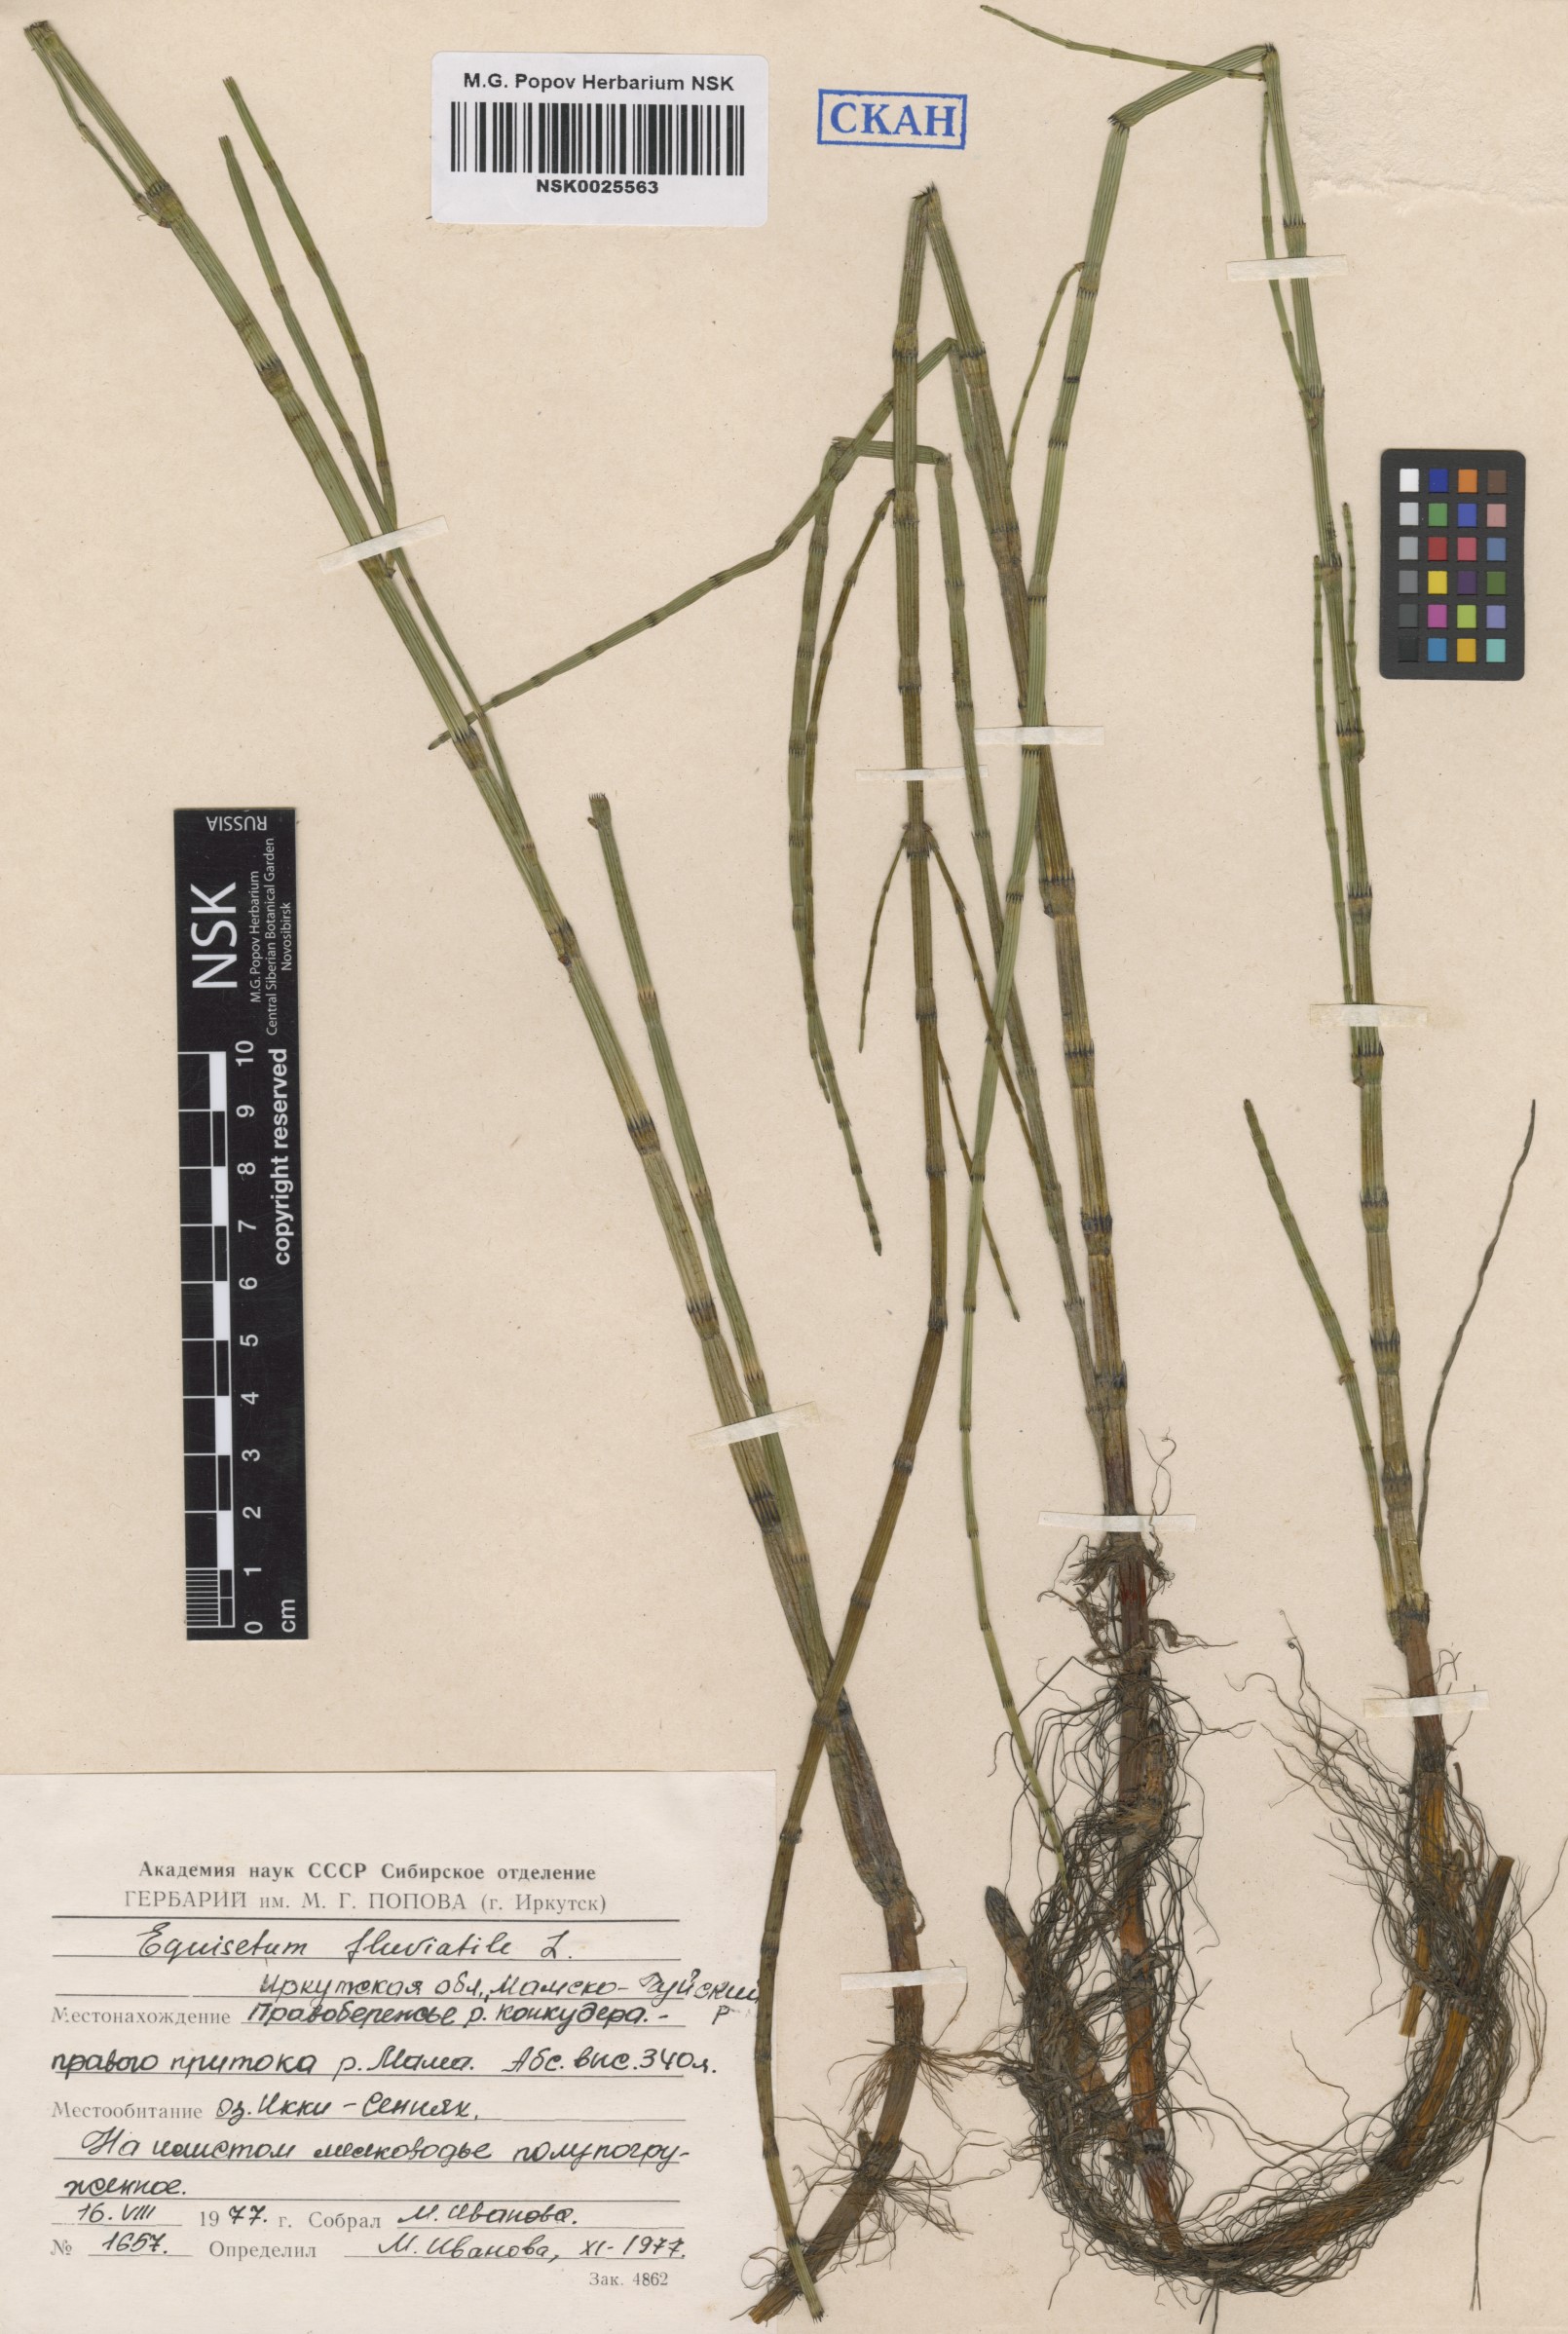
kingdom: Plantae
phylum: Tracheophyta
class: Polypodiopsida
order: Equisetales
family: Equisetaceae
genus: Equisetum
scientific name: Equisetum fluviatile
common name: Water horsetail
